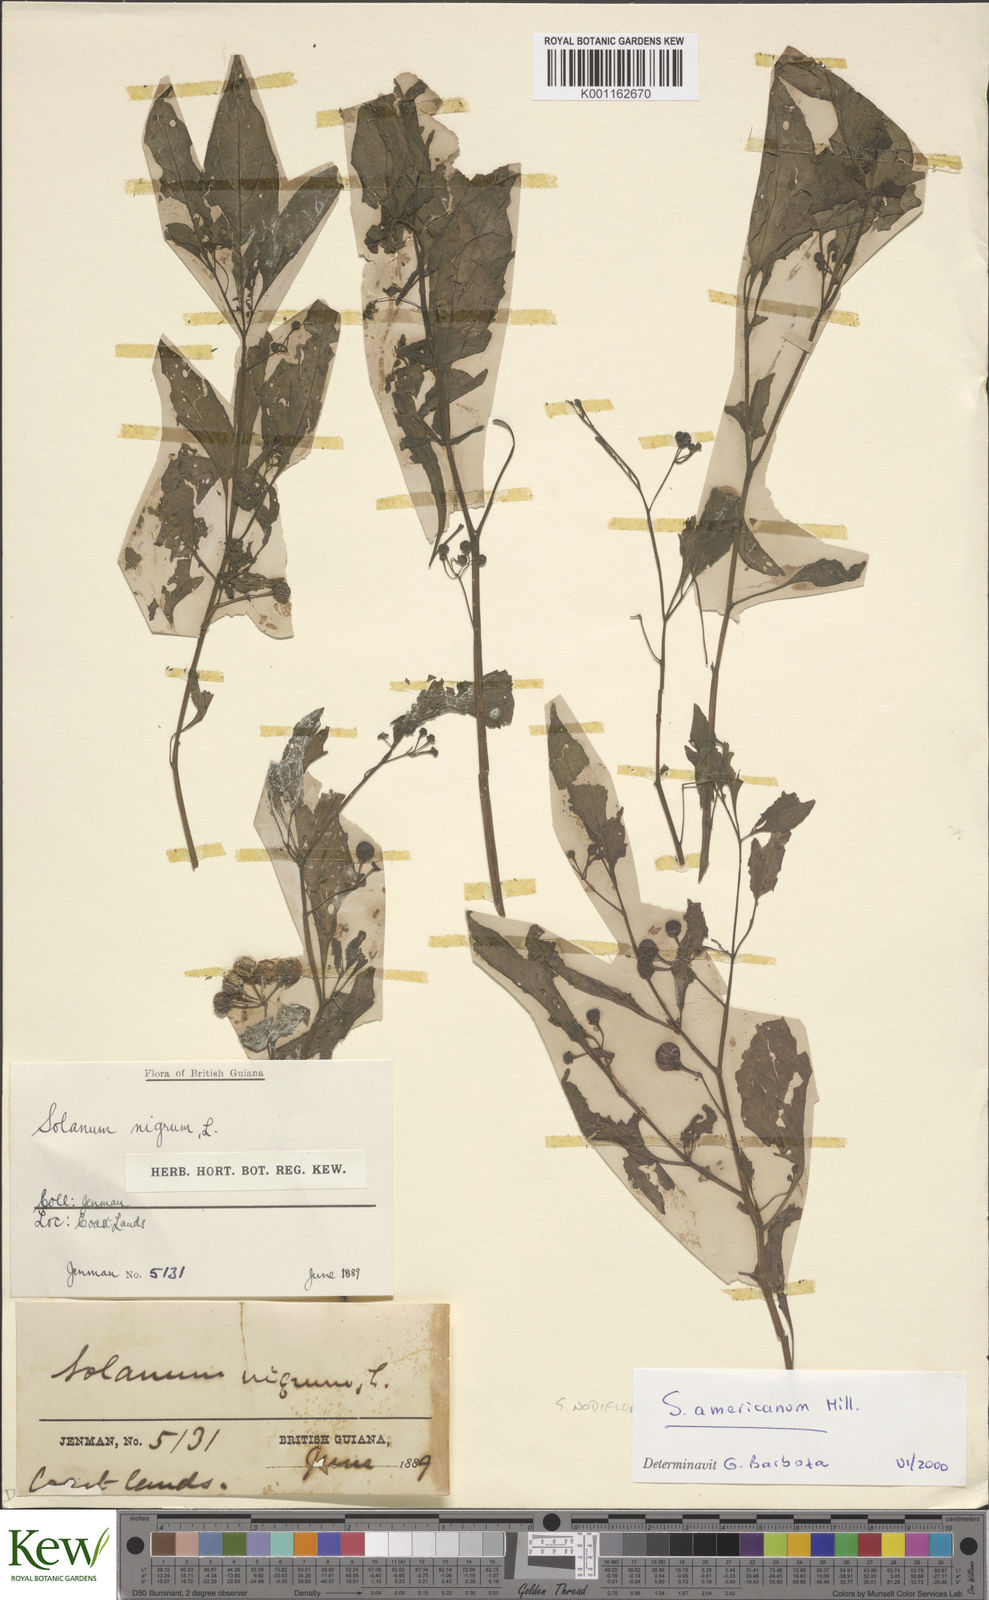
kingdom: Plantae
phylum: Tracheophyta
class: Magnoliopsida
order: Solanales
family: Solanaceae
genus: Solanum
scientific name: Solanum americanum
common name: American black nightshade
